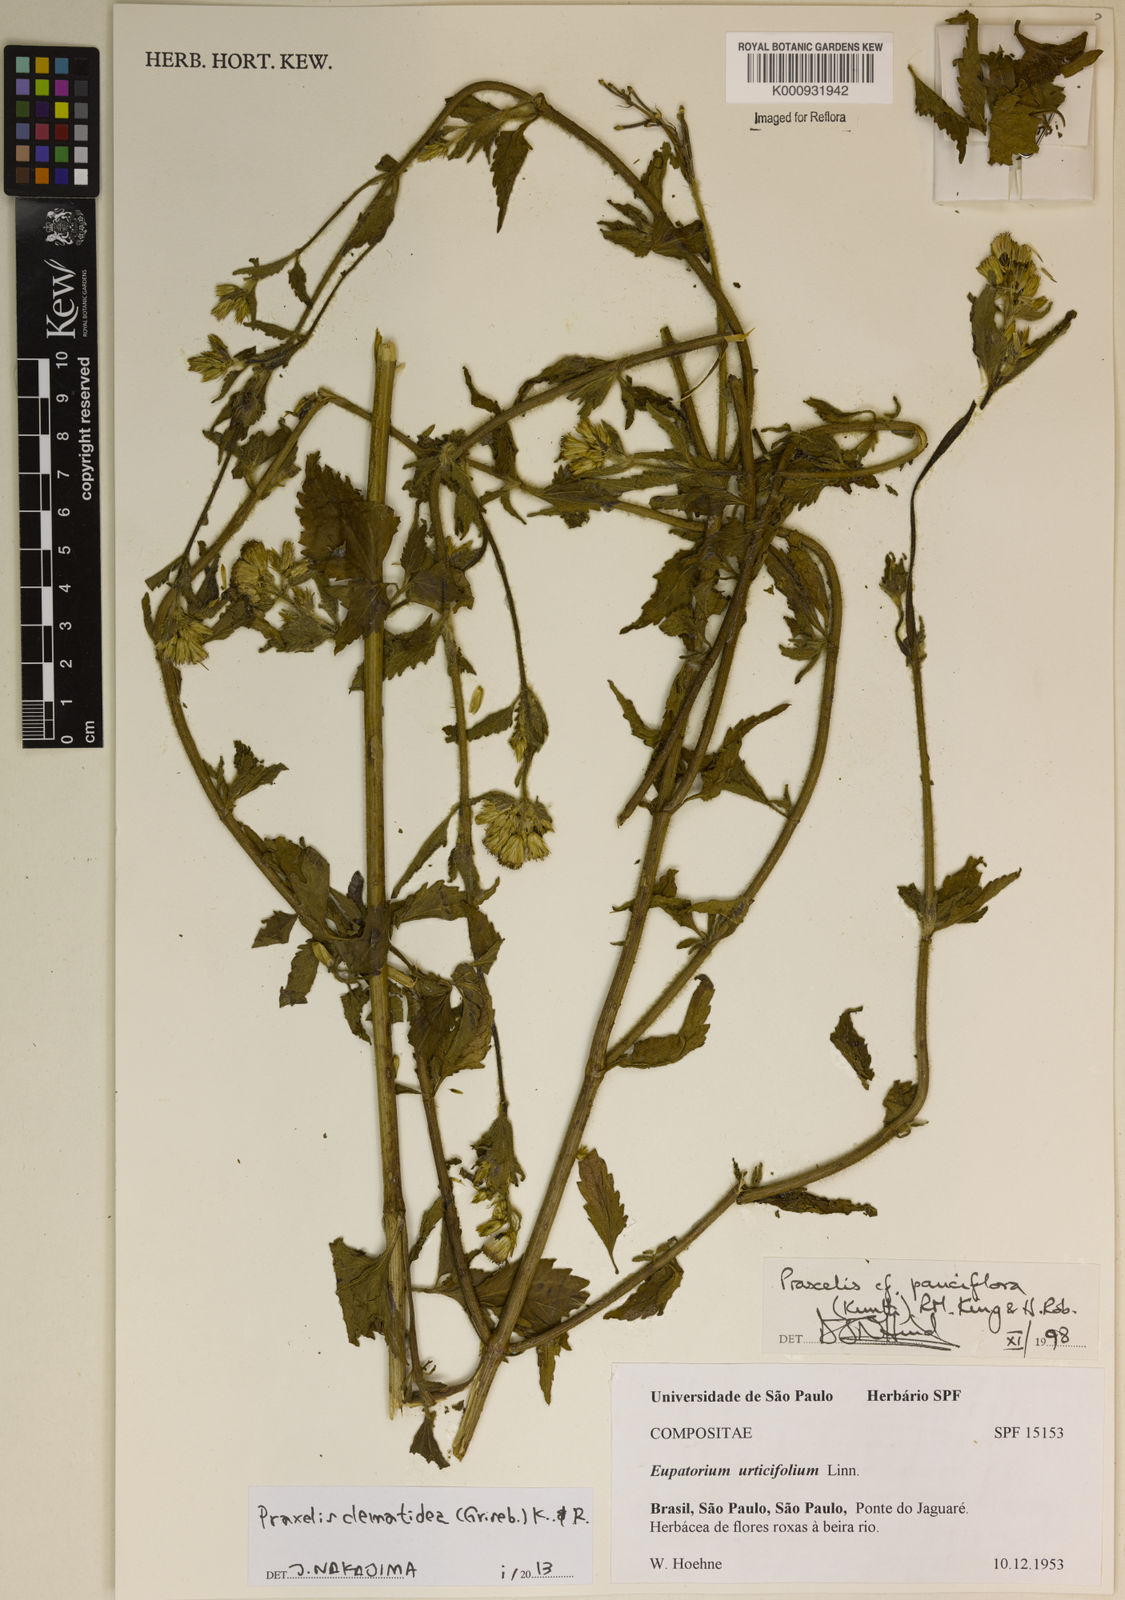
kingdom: Plantae
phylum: Tracheophyta
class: Magnoliopsida
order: Asterales
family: Asteraceae
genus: Praxelis
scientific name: Praxelis clematidea
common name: Praxelis
